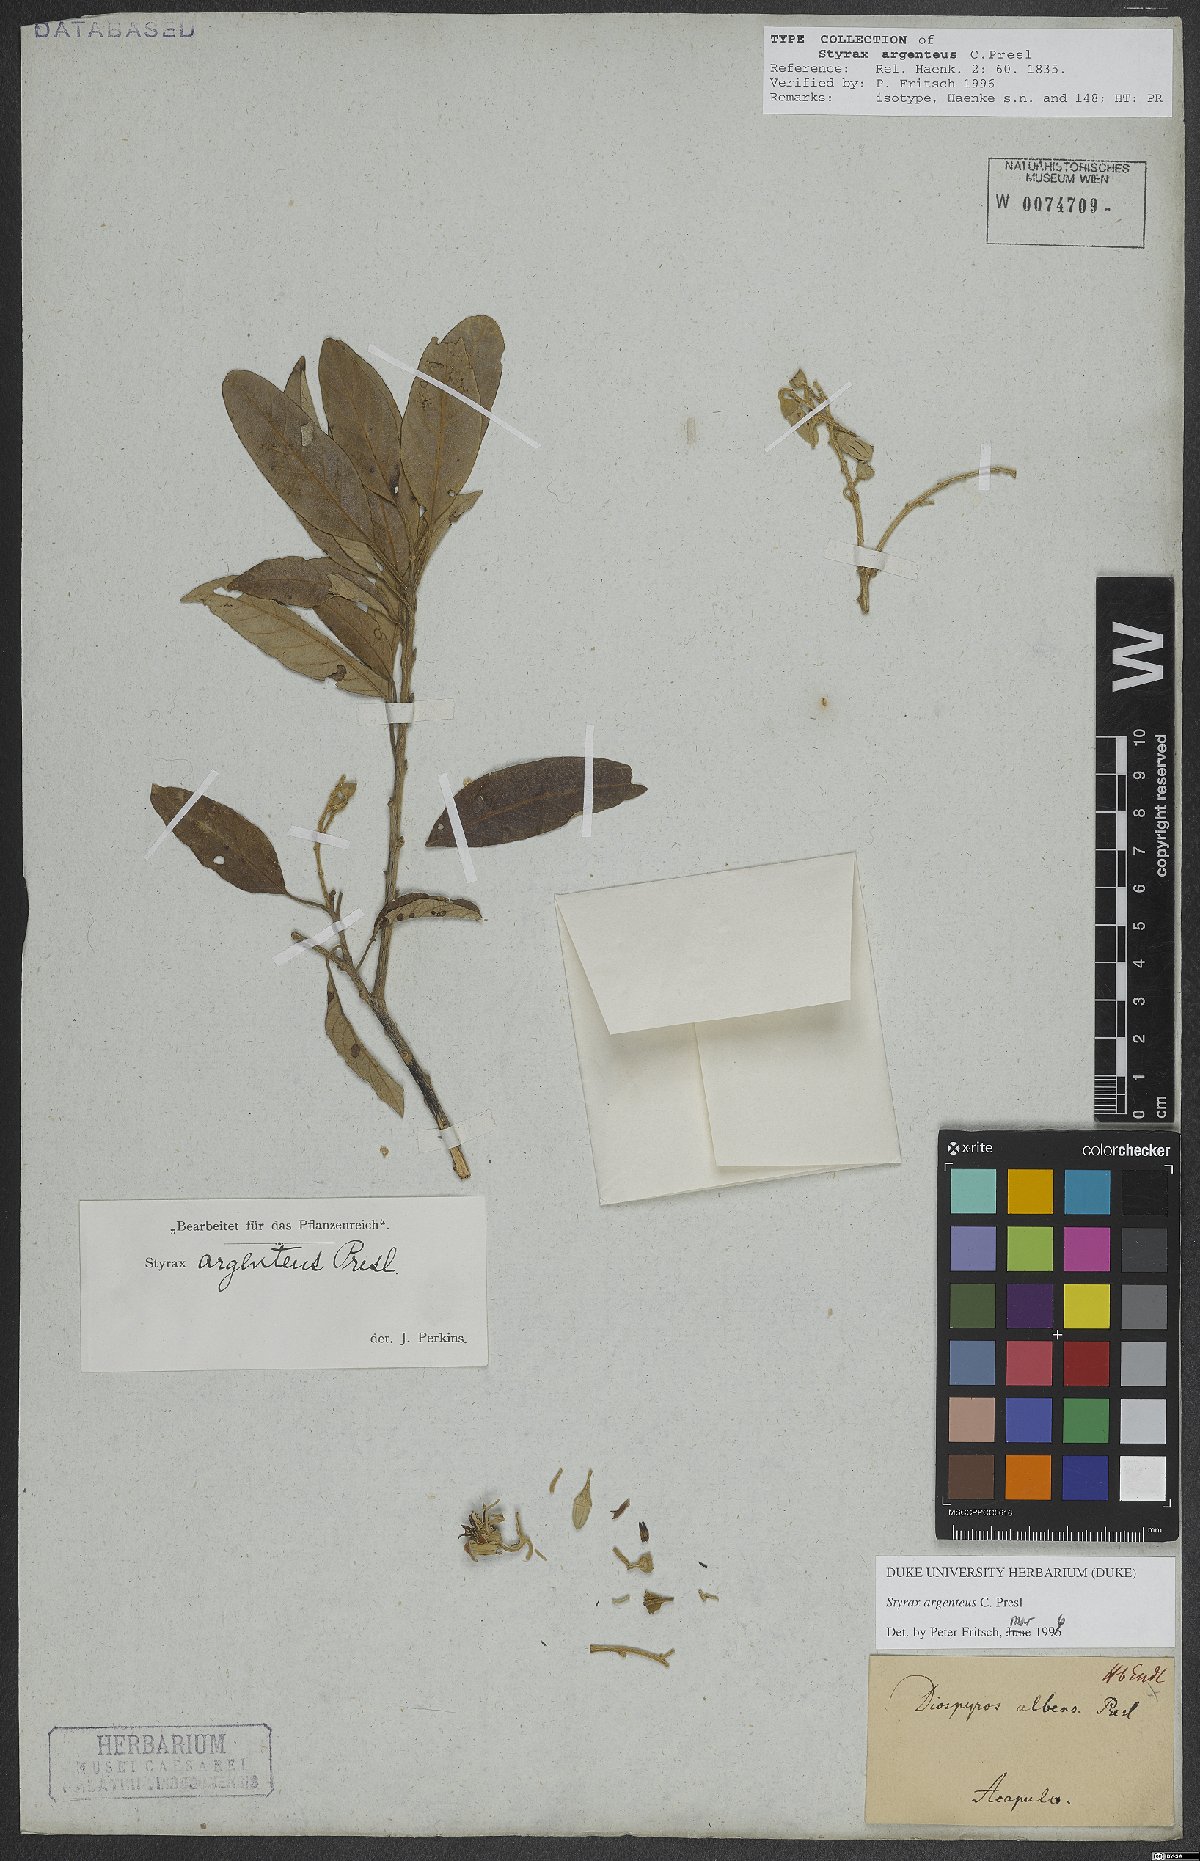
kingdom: Plantae
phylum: Tracheophyta
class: Magnoliopsida
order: Ericales
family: Styracaceae
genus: Styrax
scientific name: Styrax argenteus
